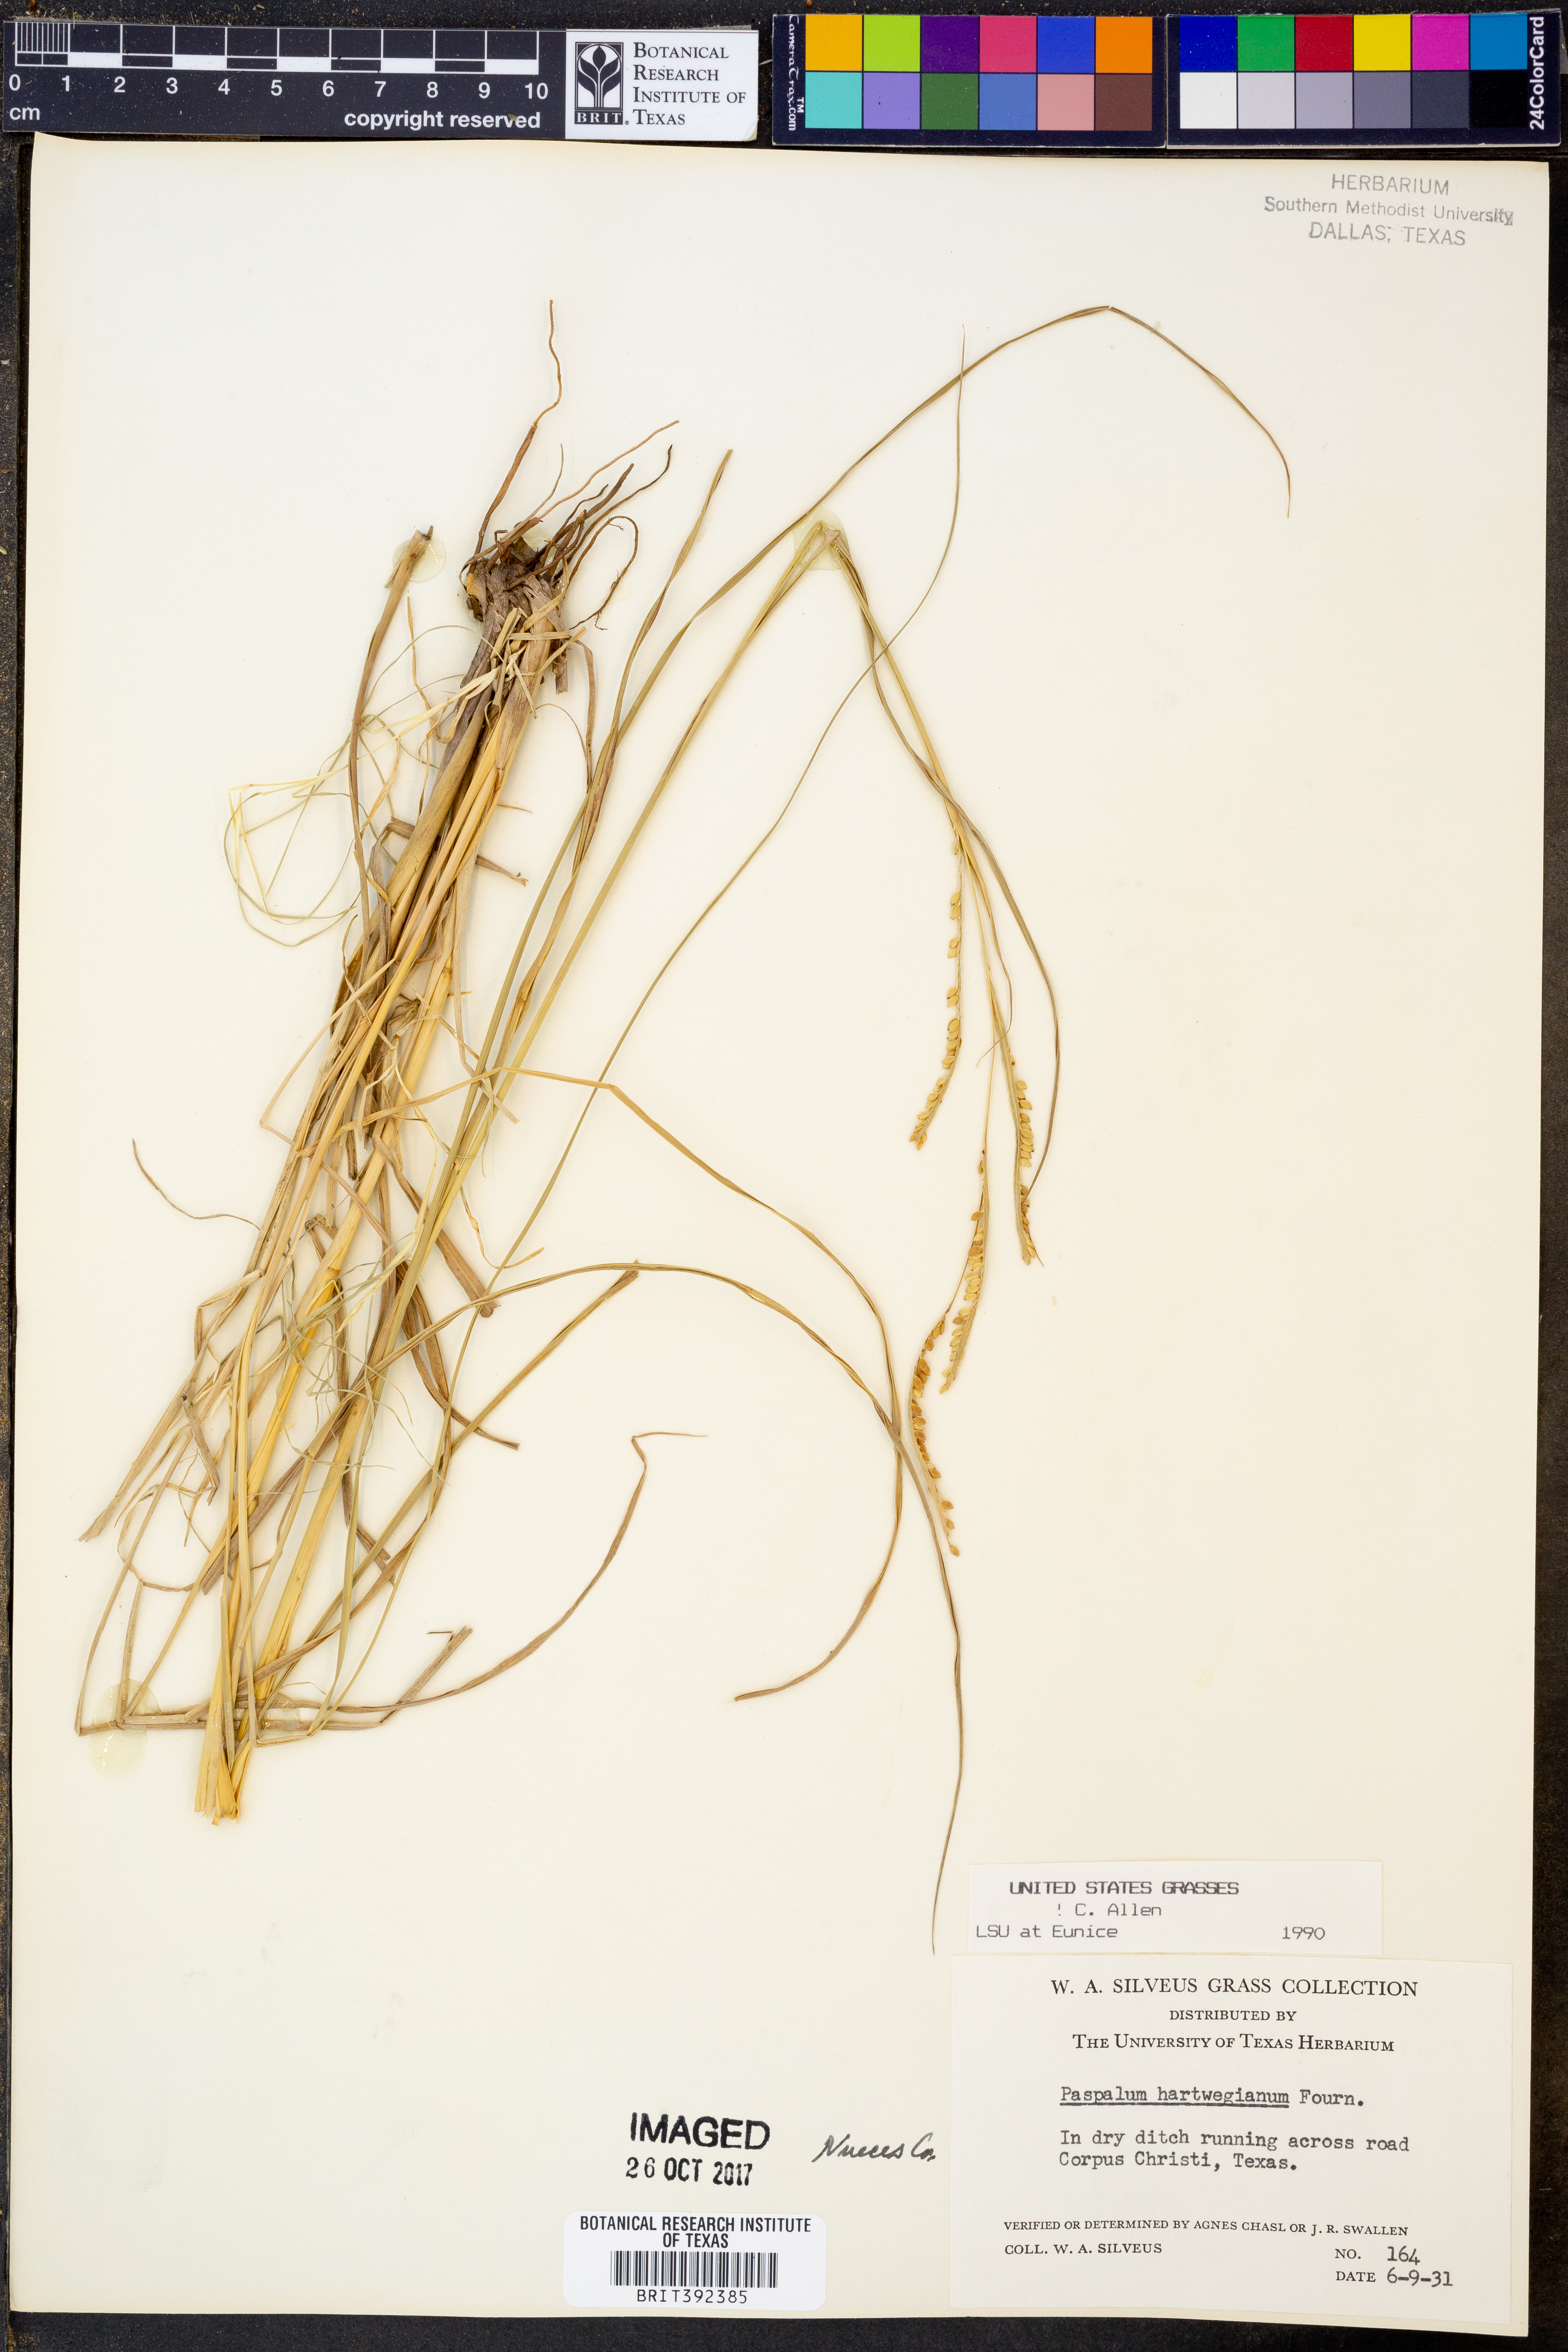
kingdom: Plantae
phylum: Tracheophyta
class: Liliopsida
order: Poales
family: Poaceae
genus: Paspalum
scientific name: Paspalum hartwegianum
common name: Hartweg's paspalum
